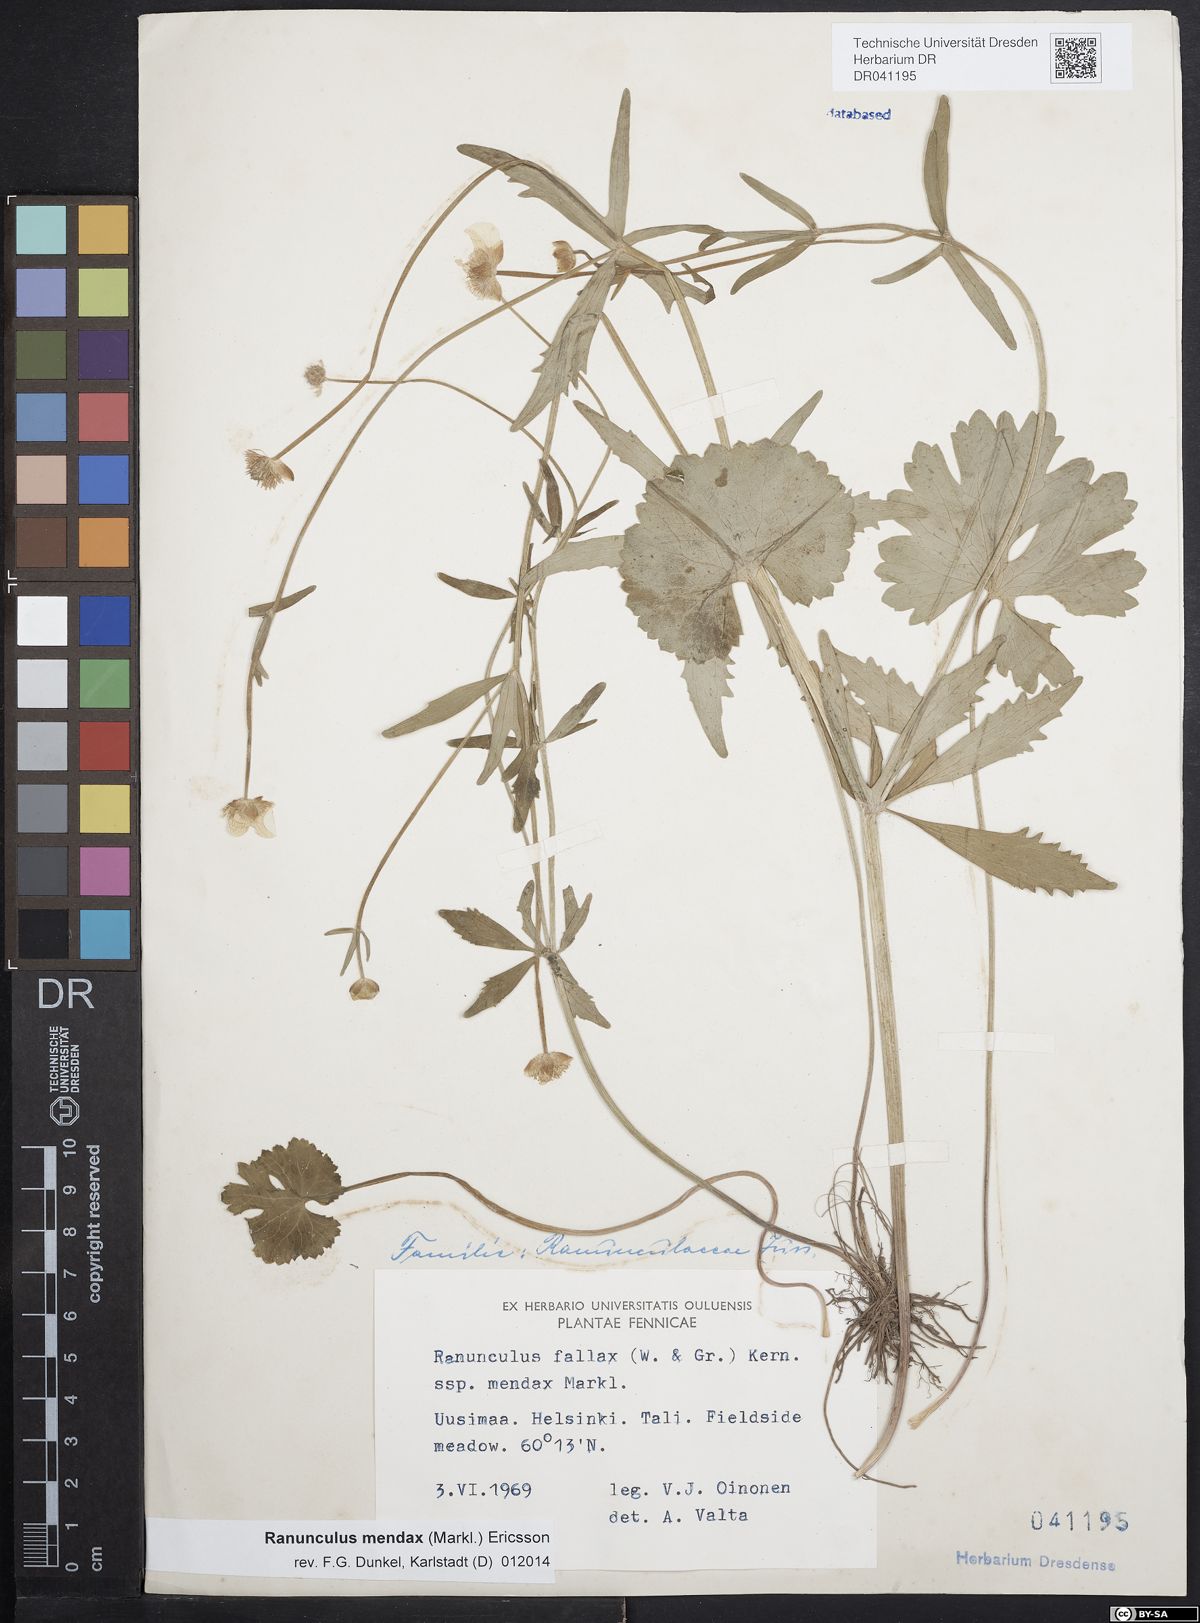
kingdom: Plantae
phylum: Tracheophyta
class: Magnoliopsida
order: Ranunculales
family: Ranunculaceae
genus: Ranunculus
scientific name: Ranunculus mendax
